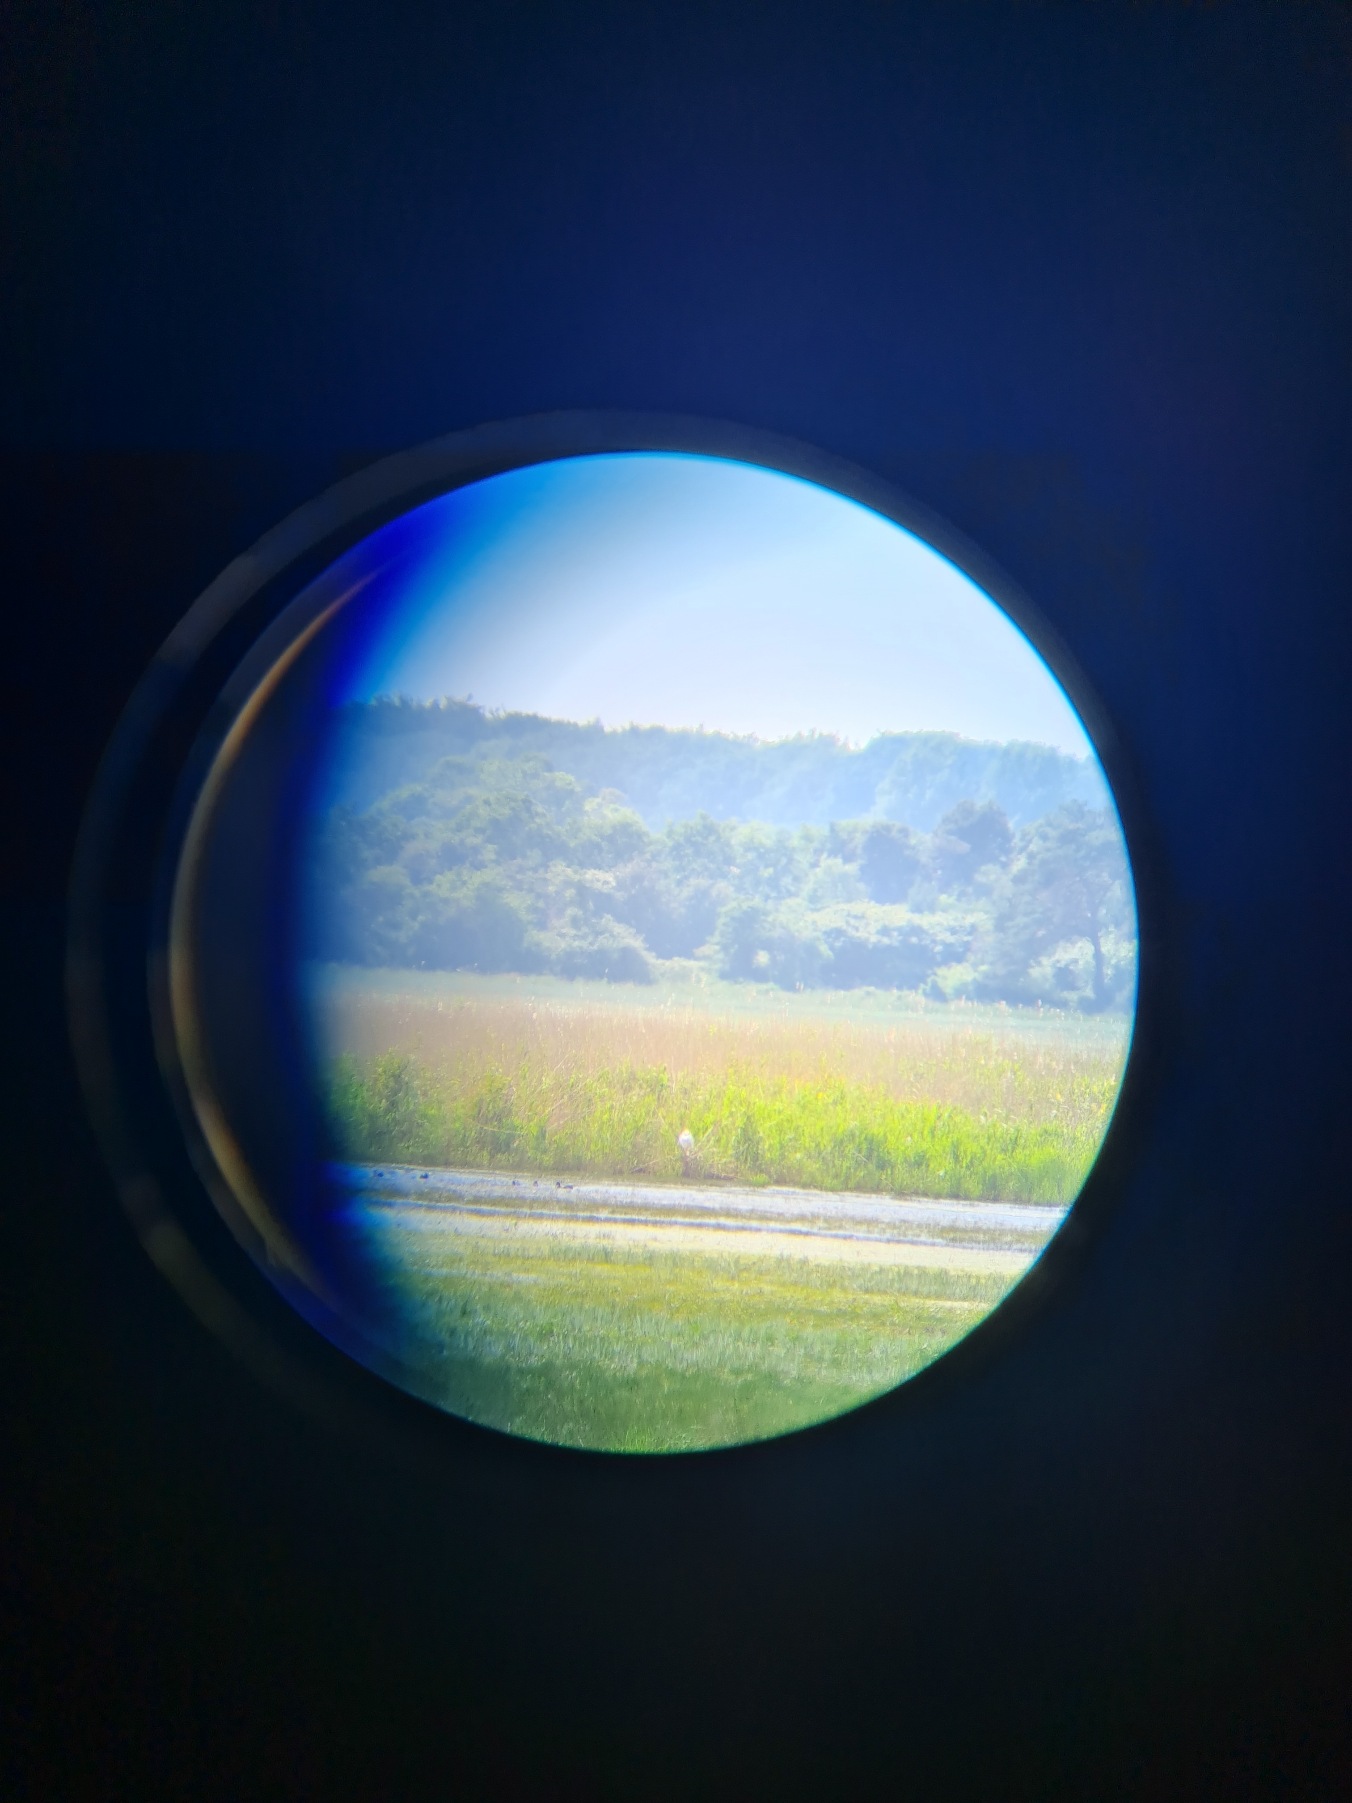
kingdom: Animalia
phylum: Chordata
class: Aves
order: Pelecaniformes
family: Ardeidae
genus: Ardea
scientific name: Ardea alba
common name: Sølvhejre
